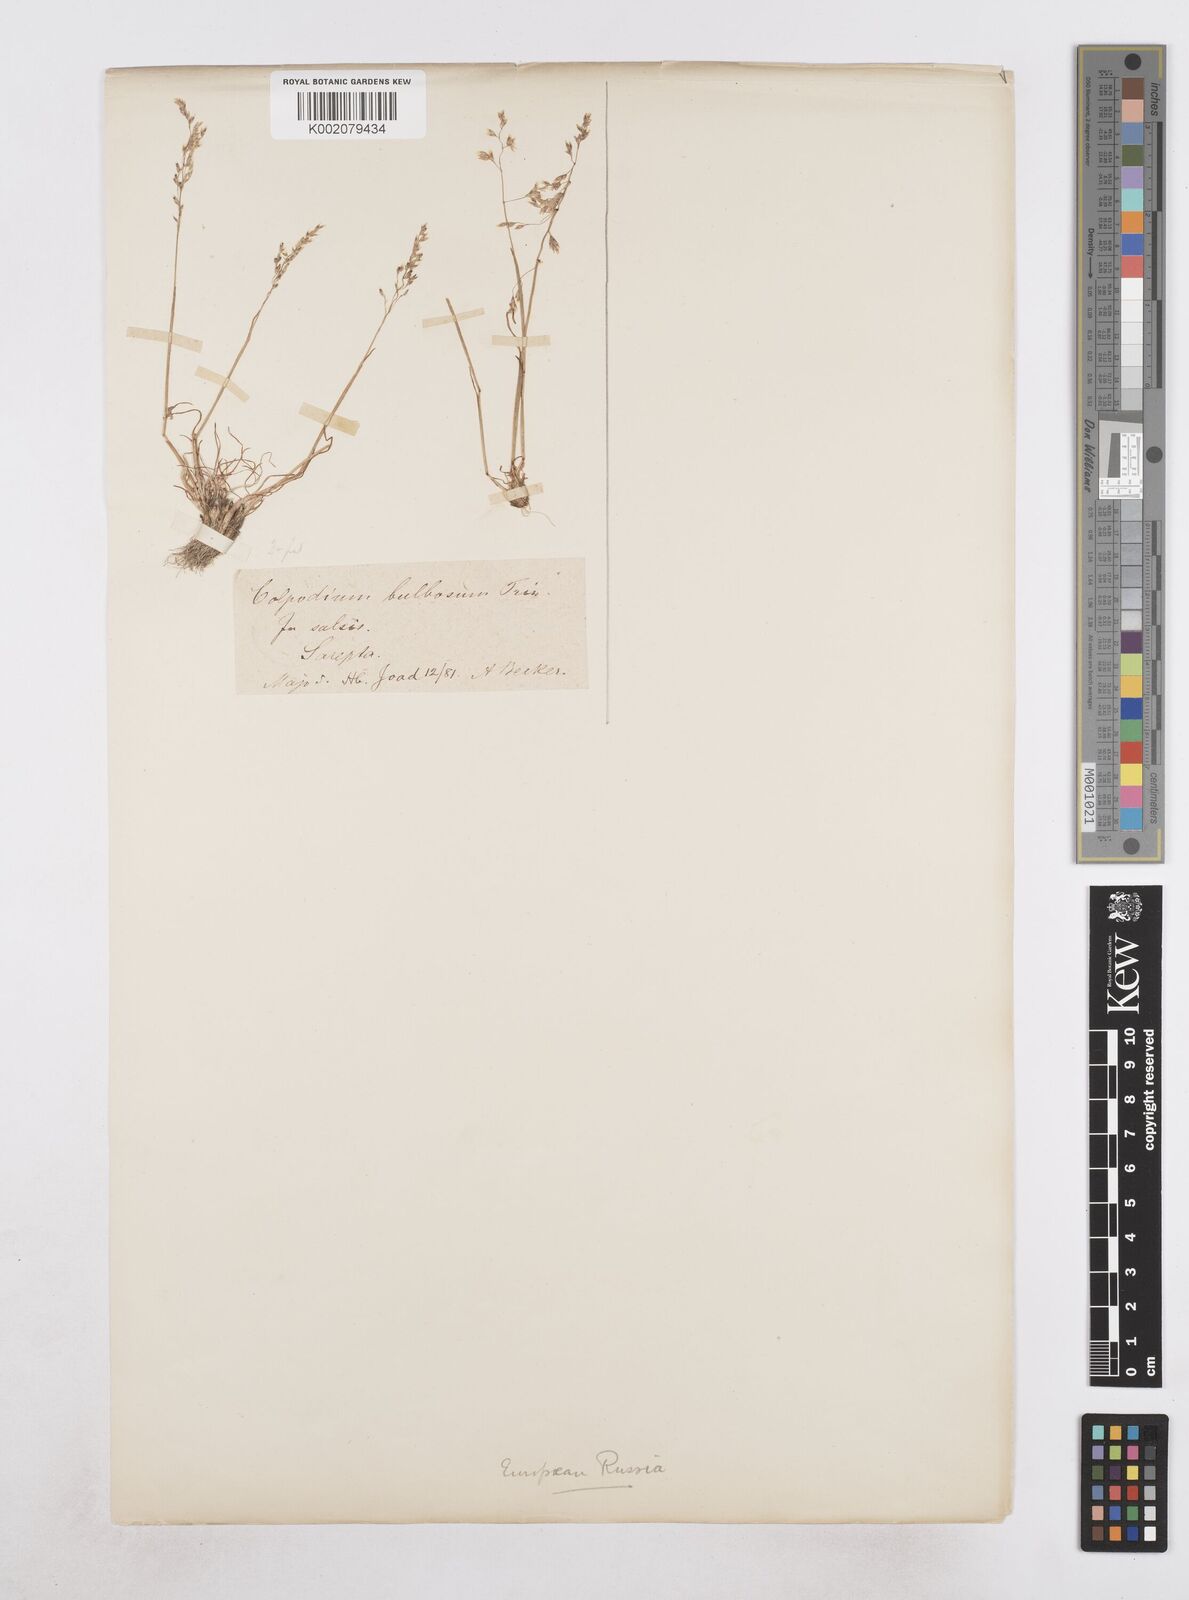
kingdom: Plantae
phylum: Tracheophyta
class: Liliopsida
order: Poales
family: Poaceae
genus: Catabrosella
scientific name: Catabrosella humilis
